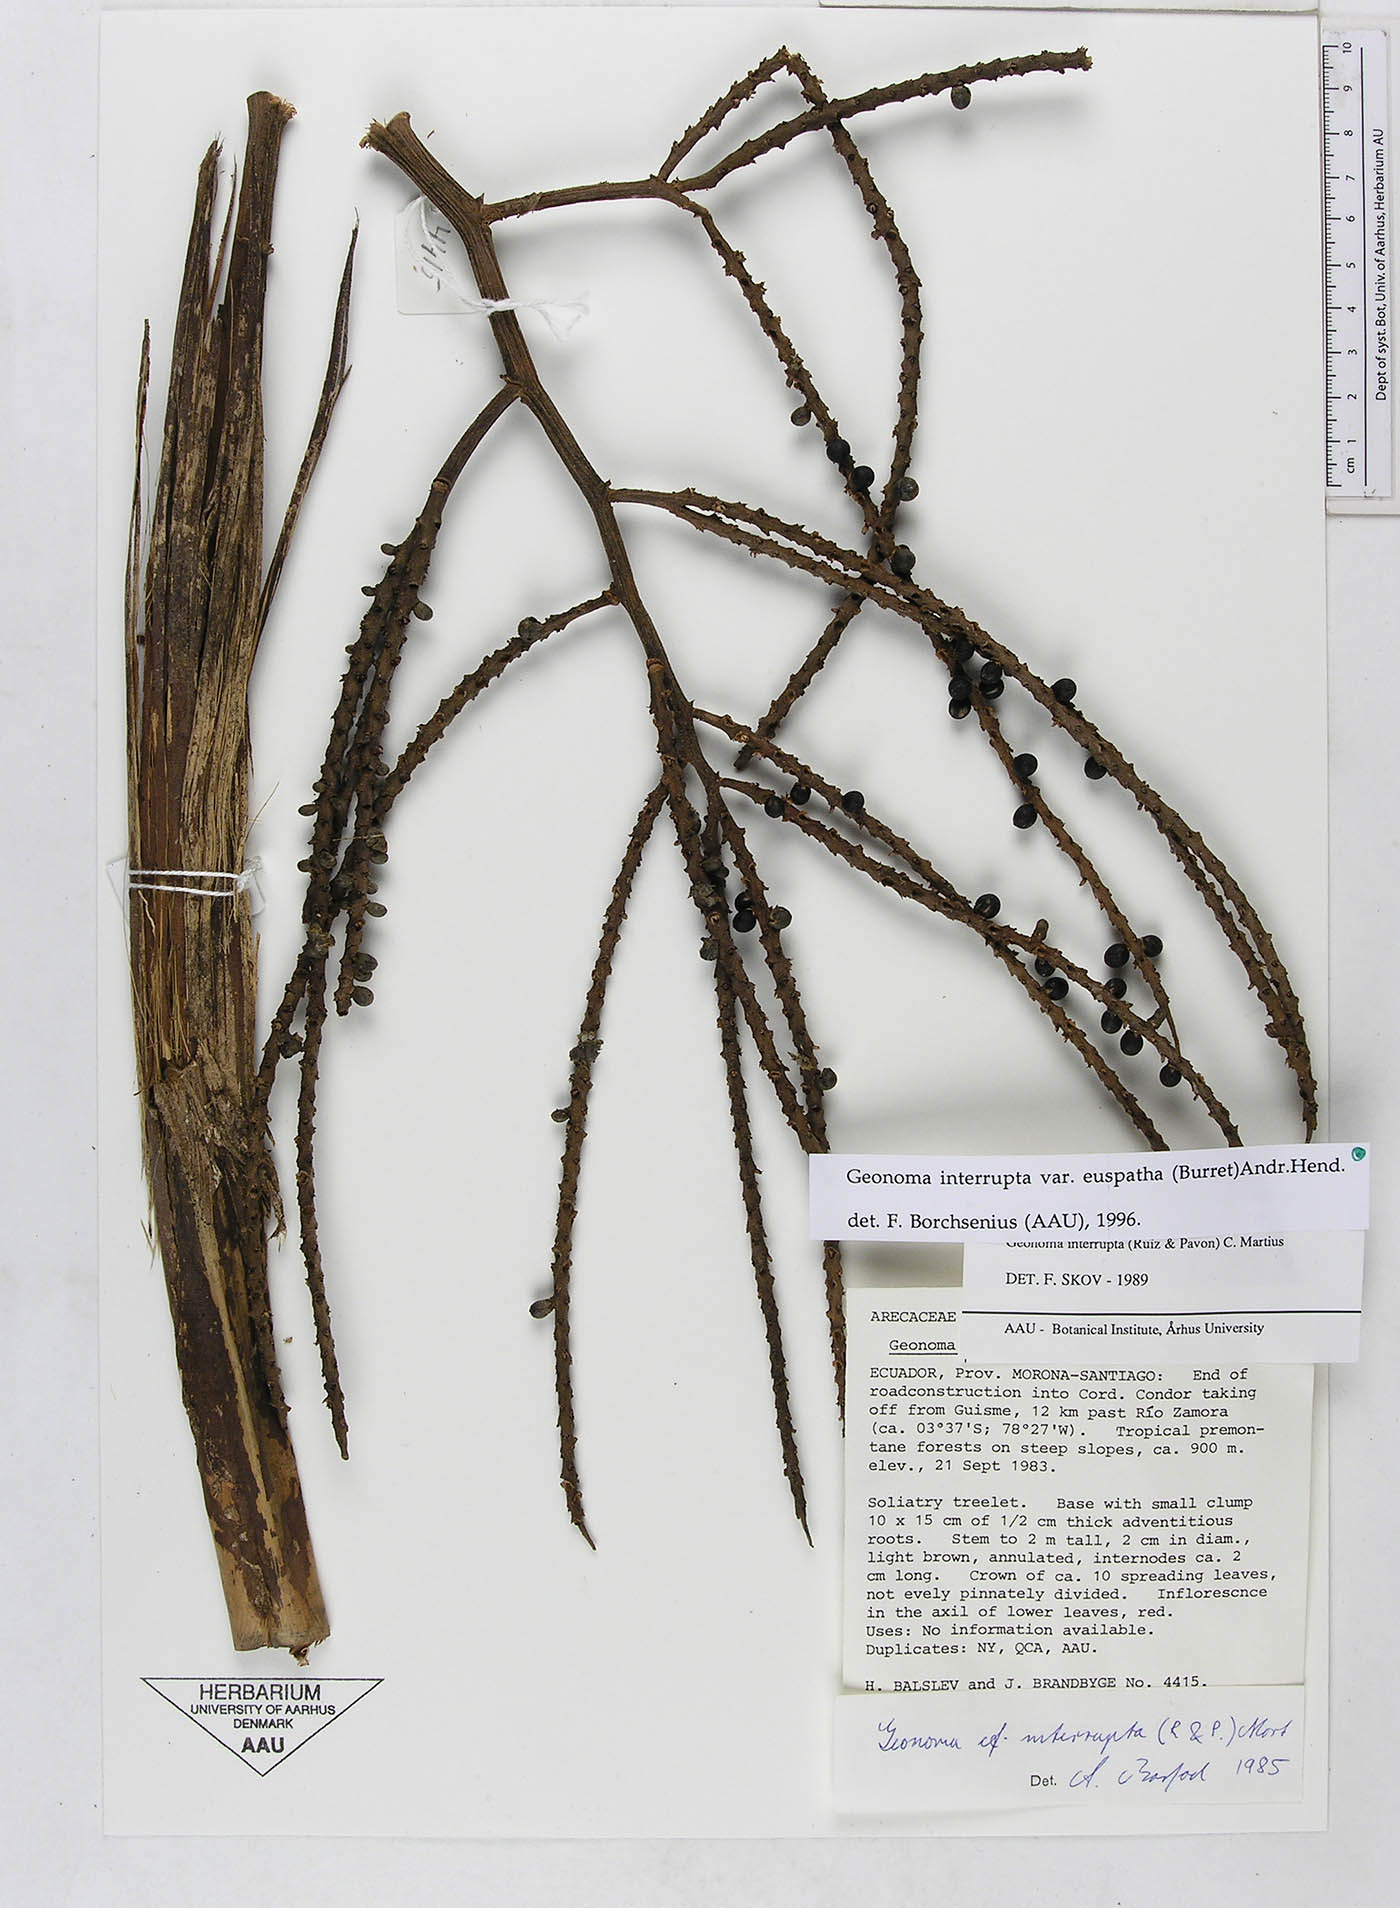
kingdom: Plantae
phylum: Tracheophyta
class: Liliopsida
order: Arecales
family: Arecaceae
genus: Geonoma
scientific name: Geonoma euspatha
